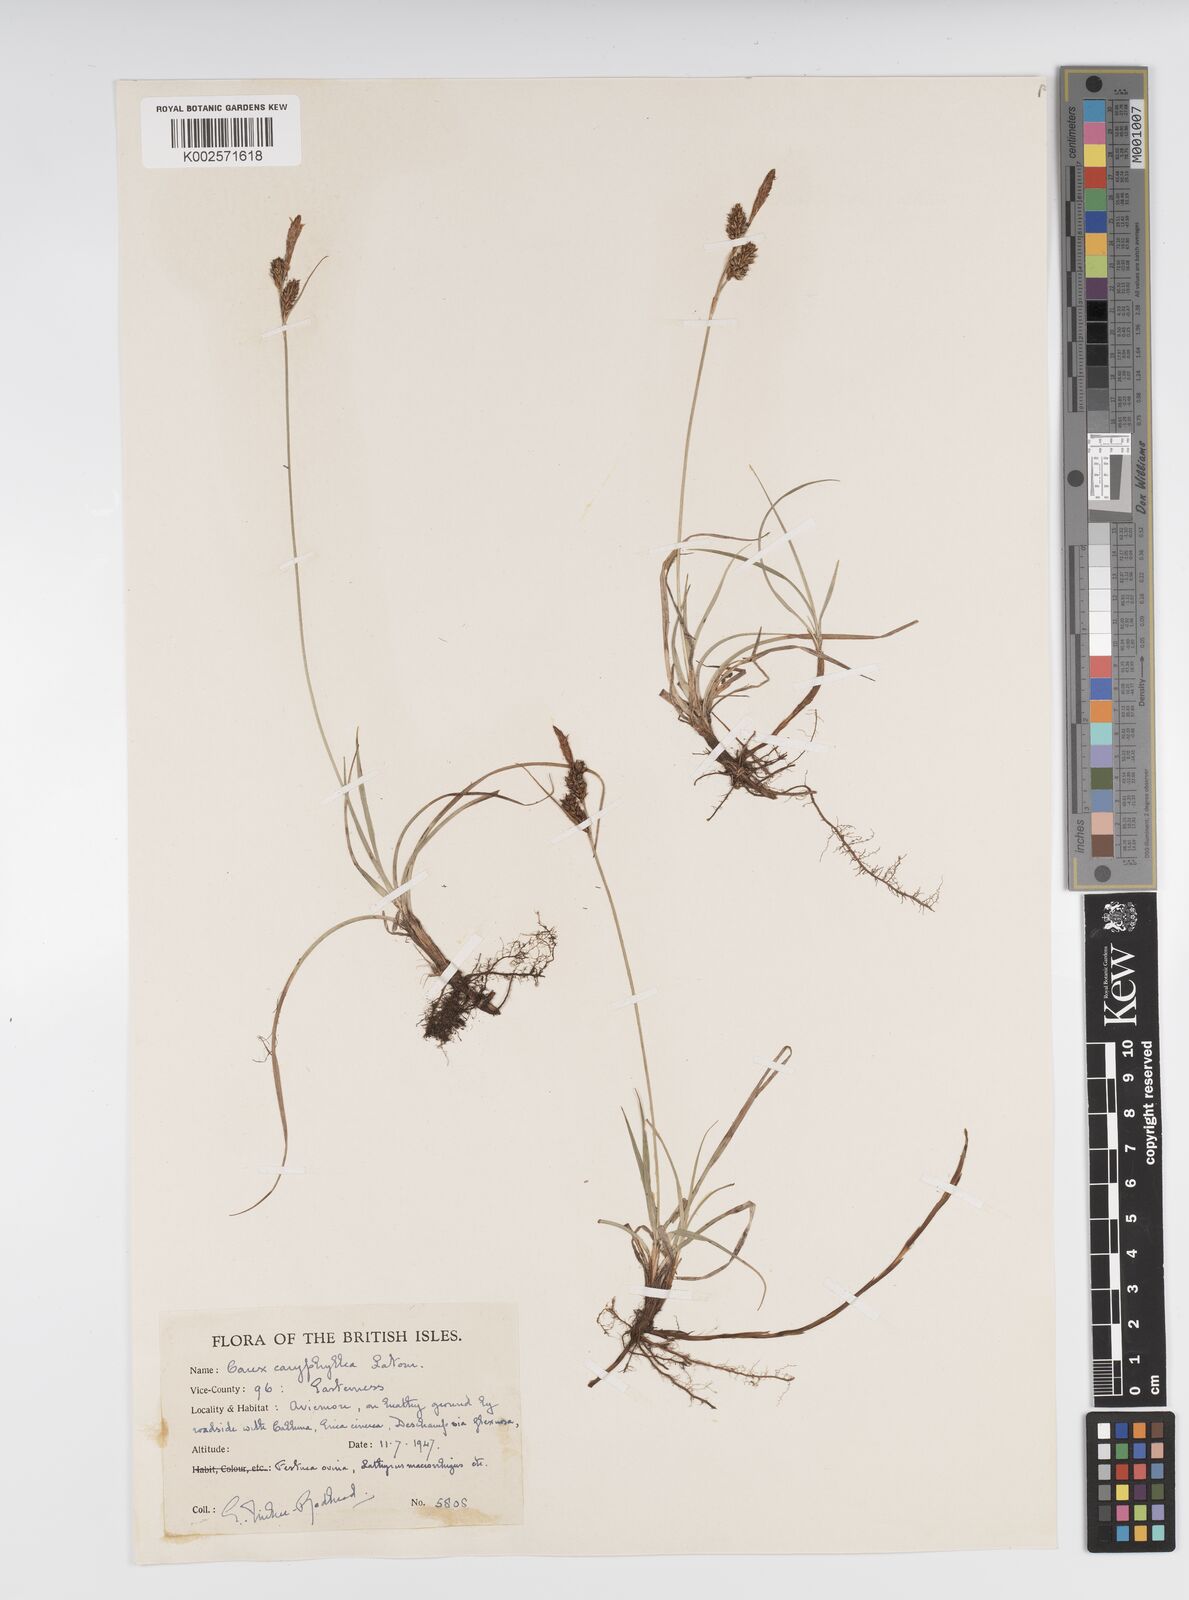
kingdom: Plantae
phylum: Tracheophyta
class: Liliopsida
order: Poales
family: Cyperaceae
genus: Carex
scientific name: Carex caryophyllea
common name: Spring sedge
